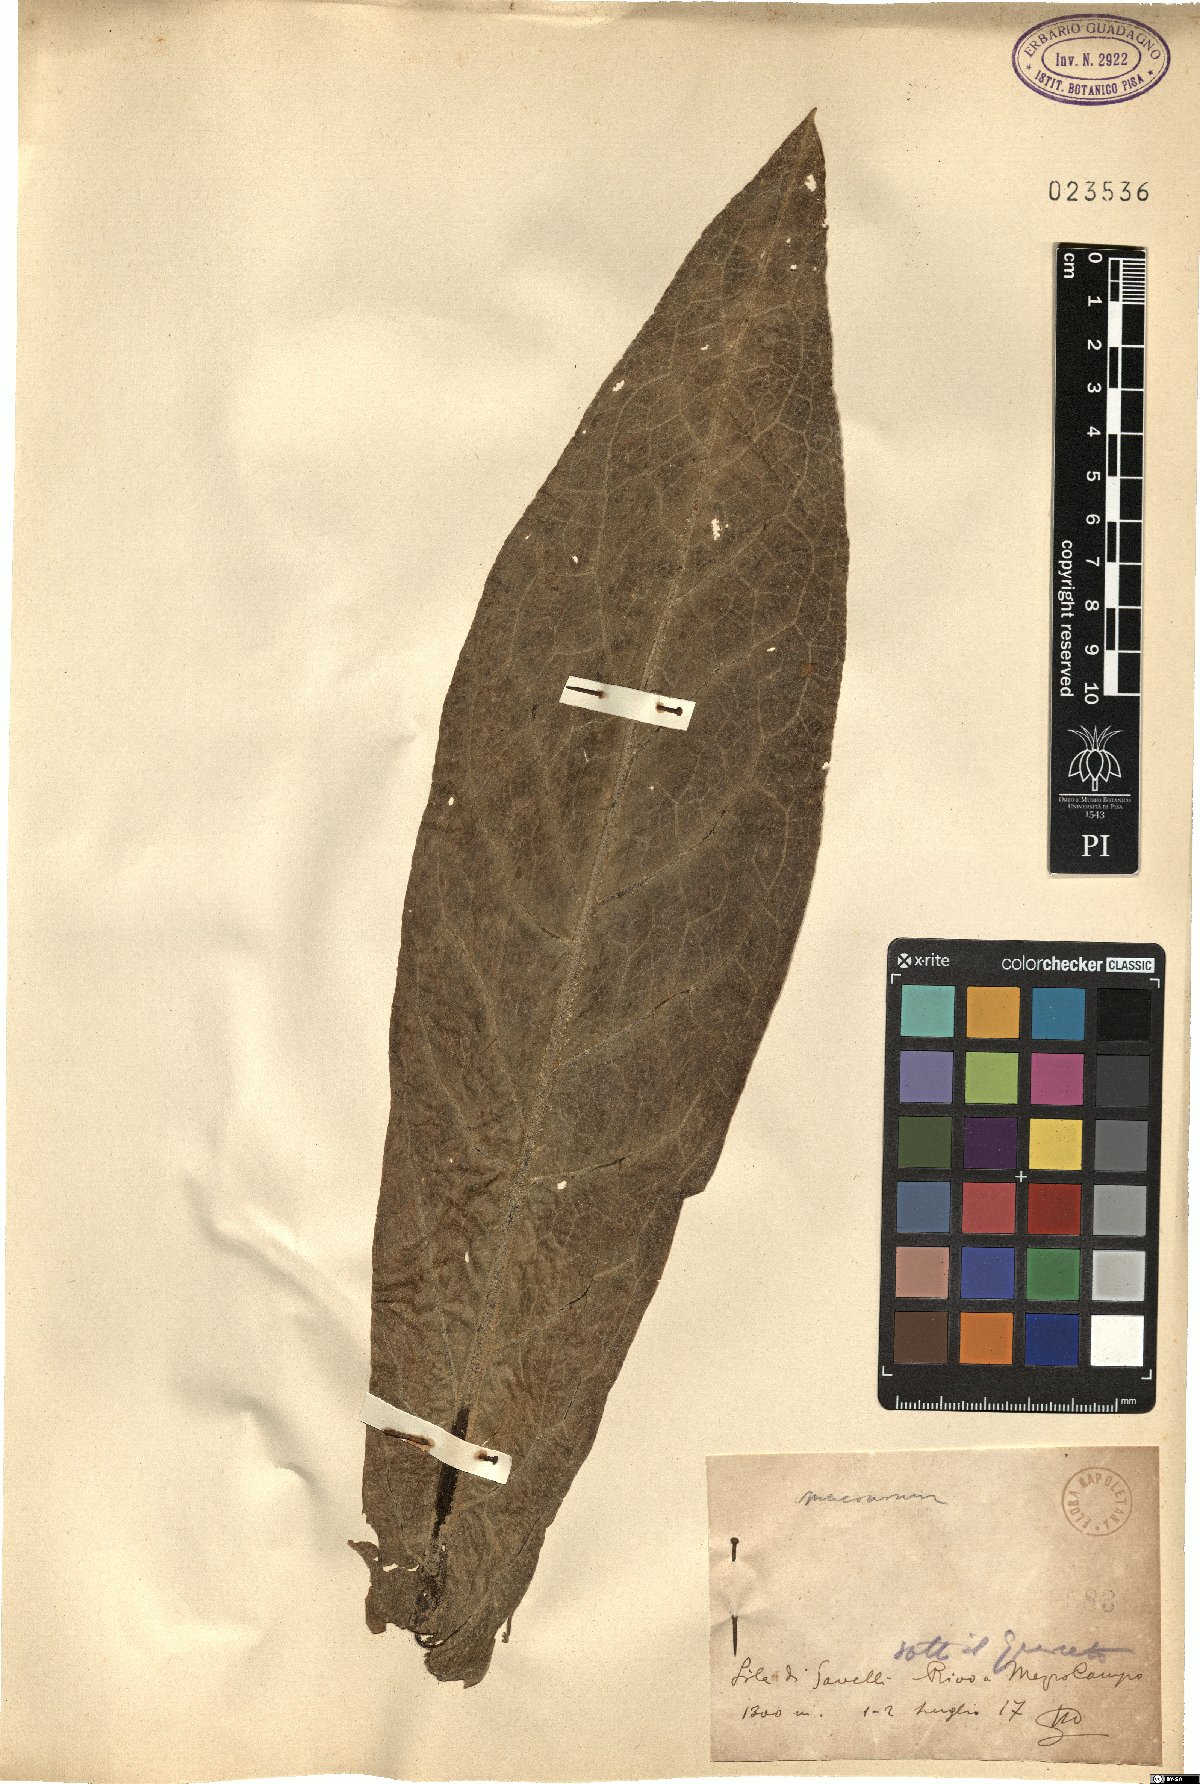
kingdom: Plantae
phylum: Tracheophyta
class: Magnoliopsida
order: Lamiales
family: Scrophulariaceae
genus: Verbascum
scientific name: Verbascum macrurum
